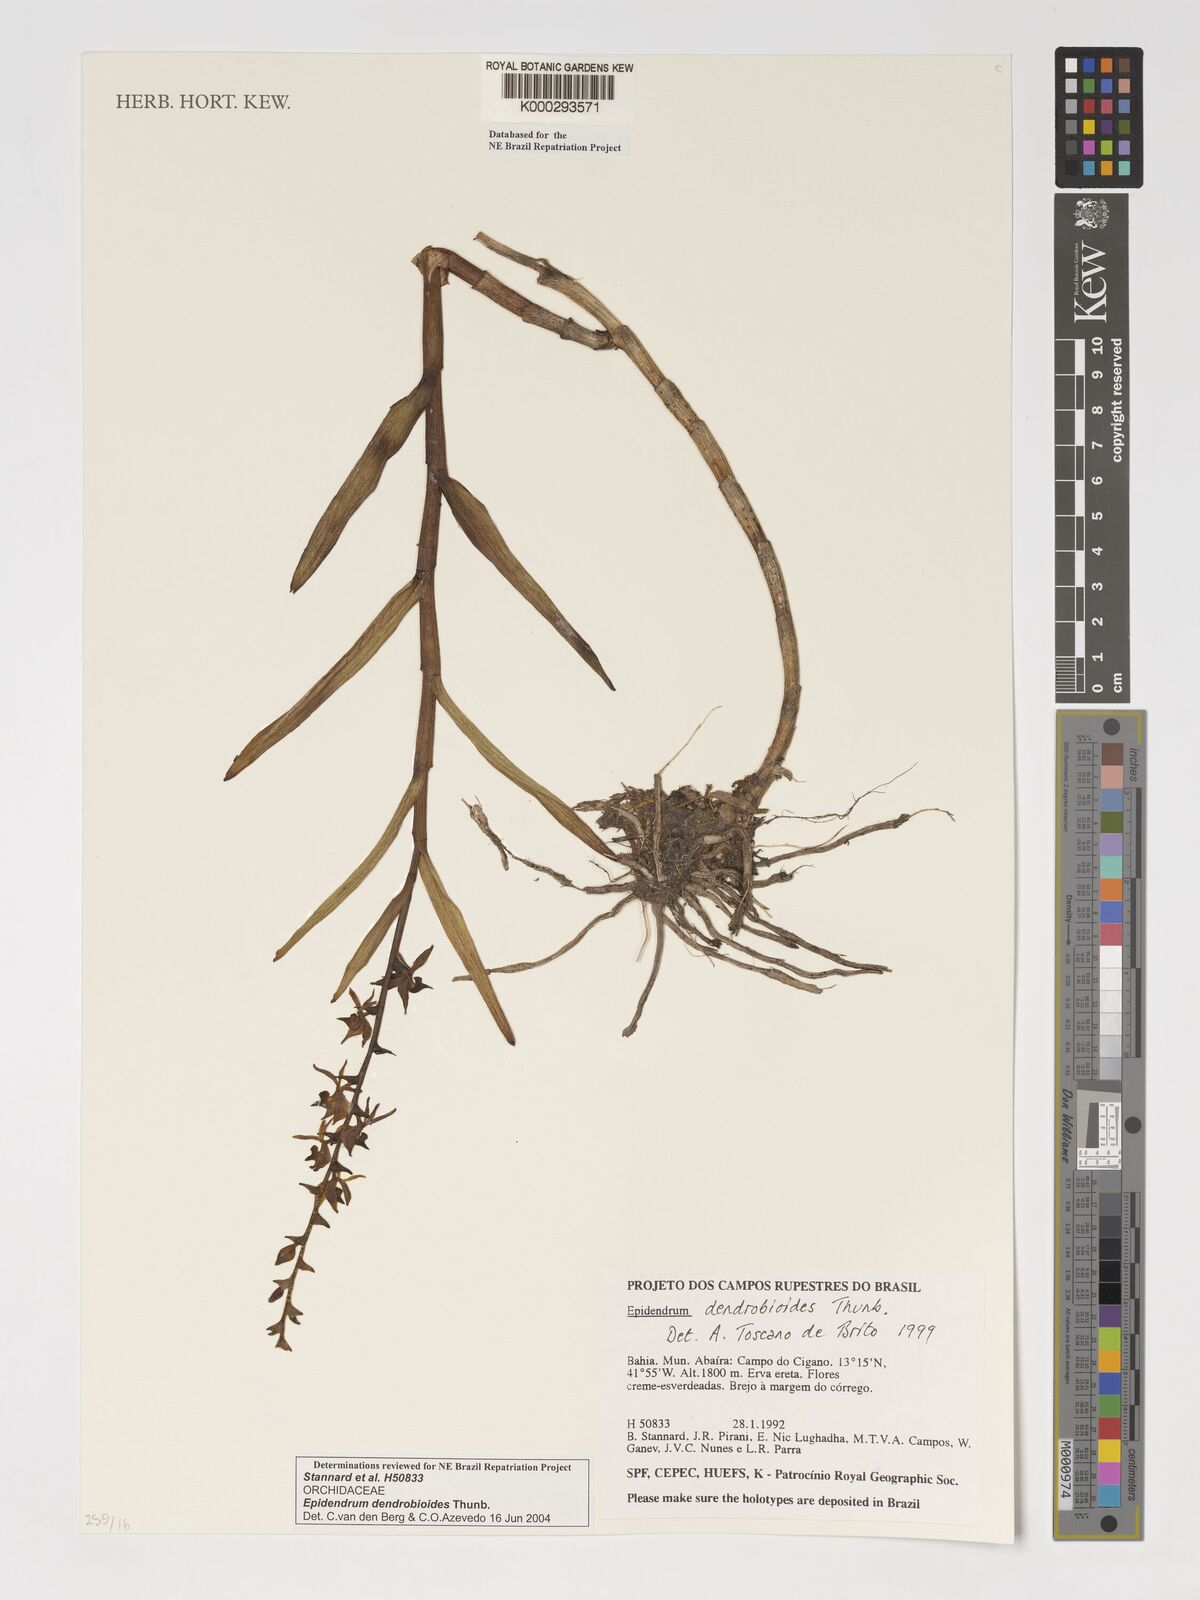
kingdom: Plantae
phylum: Tracheophyta
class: Liliopsida
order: Asparagales
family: Orchidaceae
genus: Epidendrum
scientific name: Epidendrum dendrobioides
